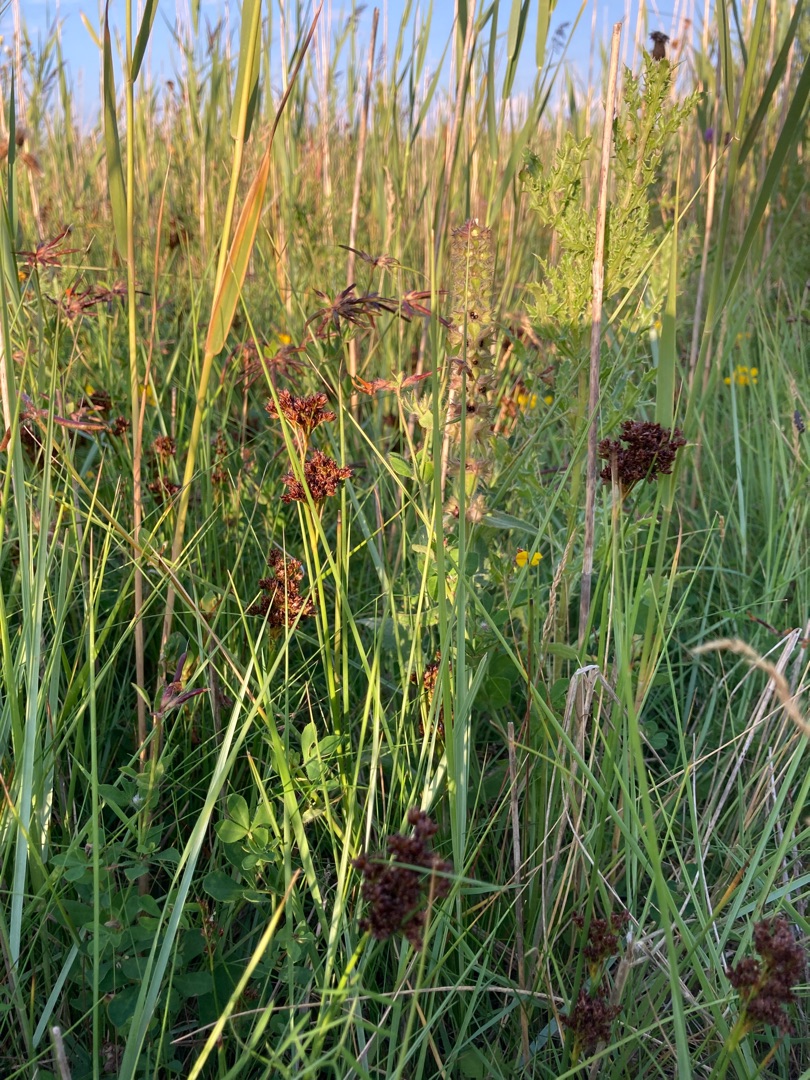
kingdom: Plantae
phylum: Tracheophyta
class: Liliopsida
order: Poales
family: Juncaceae
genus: Juncus
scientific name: Juncus anceps
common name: Sand-siv
